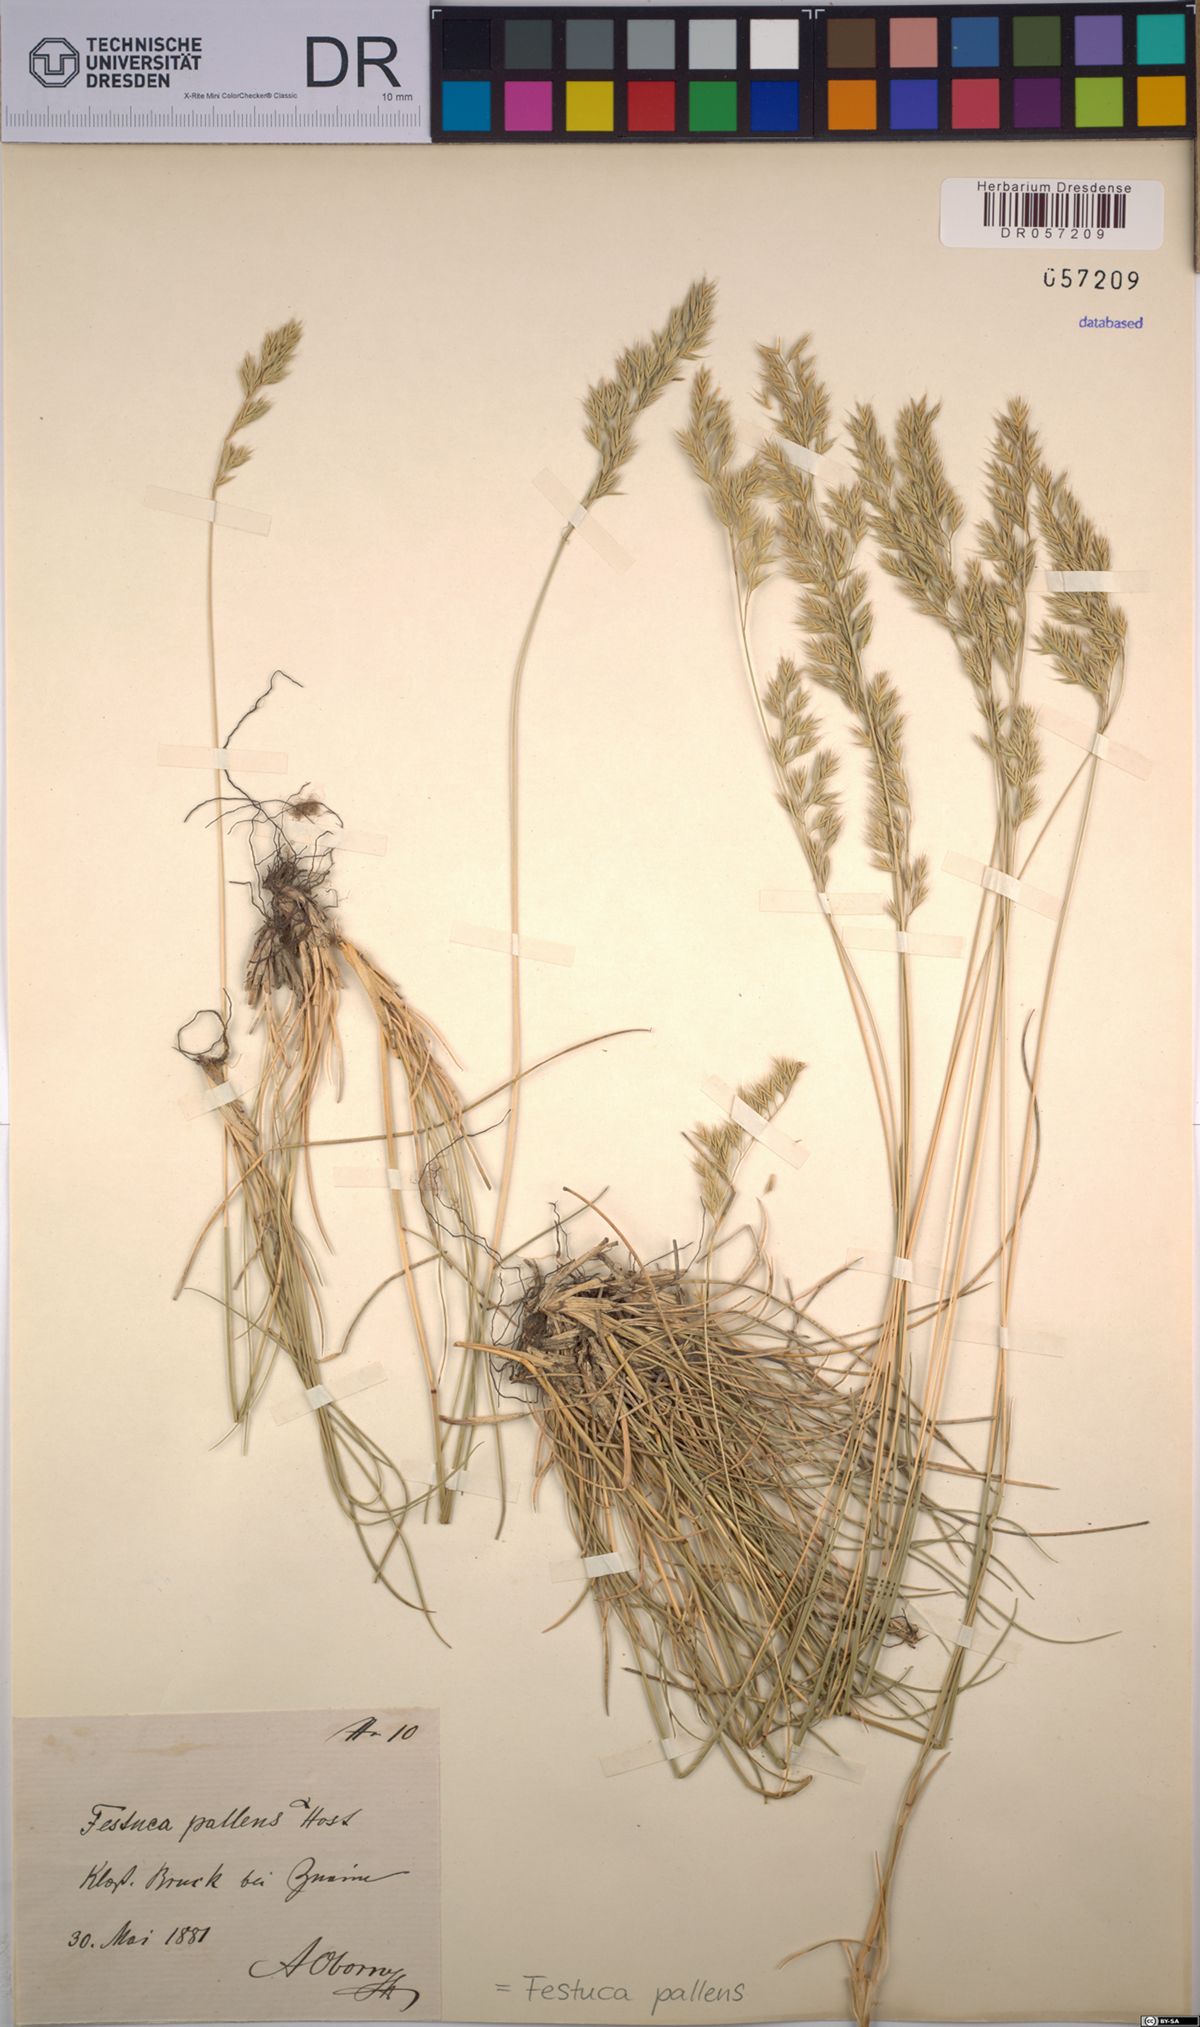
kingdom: Plantae
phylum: Tracheophyta
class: Liliopsida
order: Poales
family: Poaceae
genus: Festuca
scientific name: Festuca pallens
